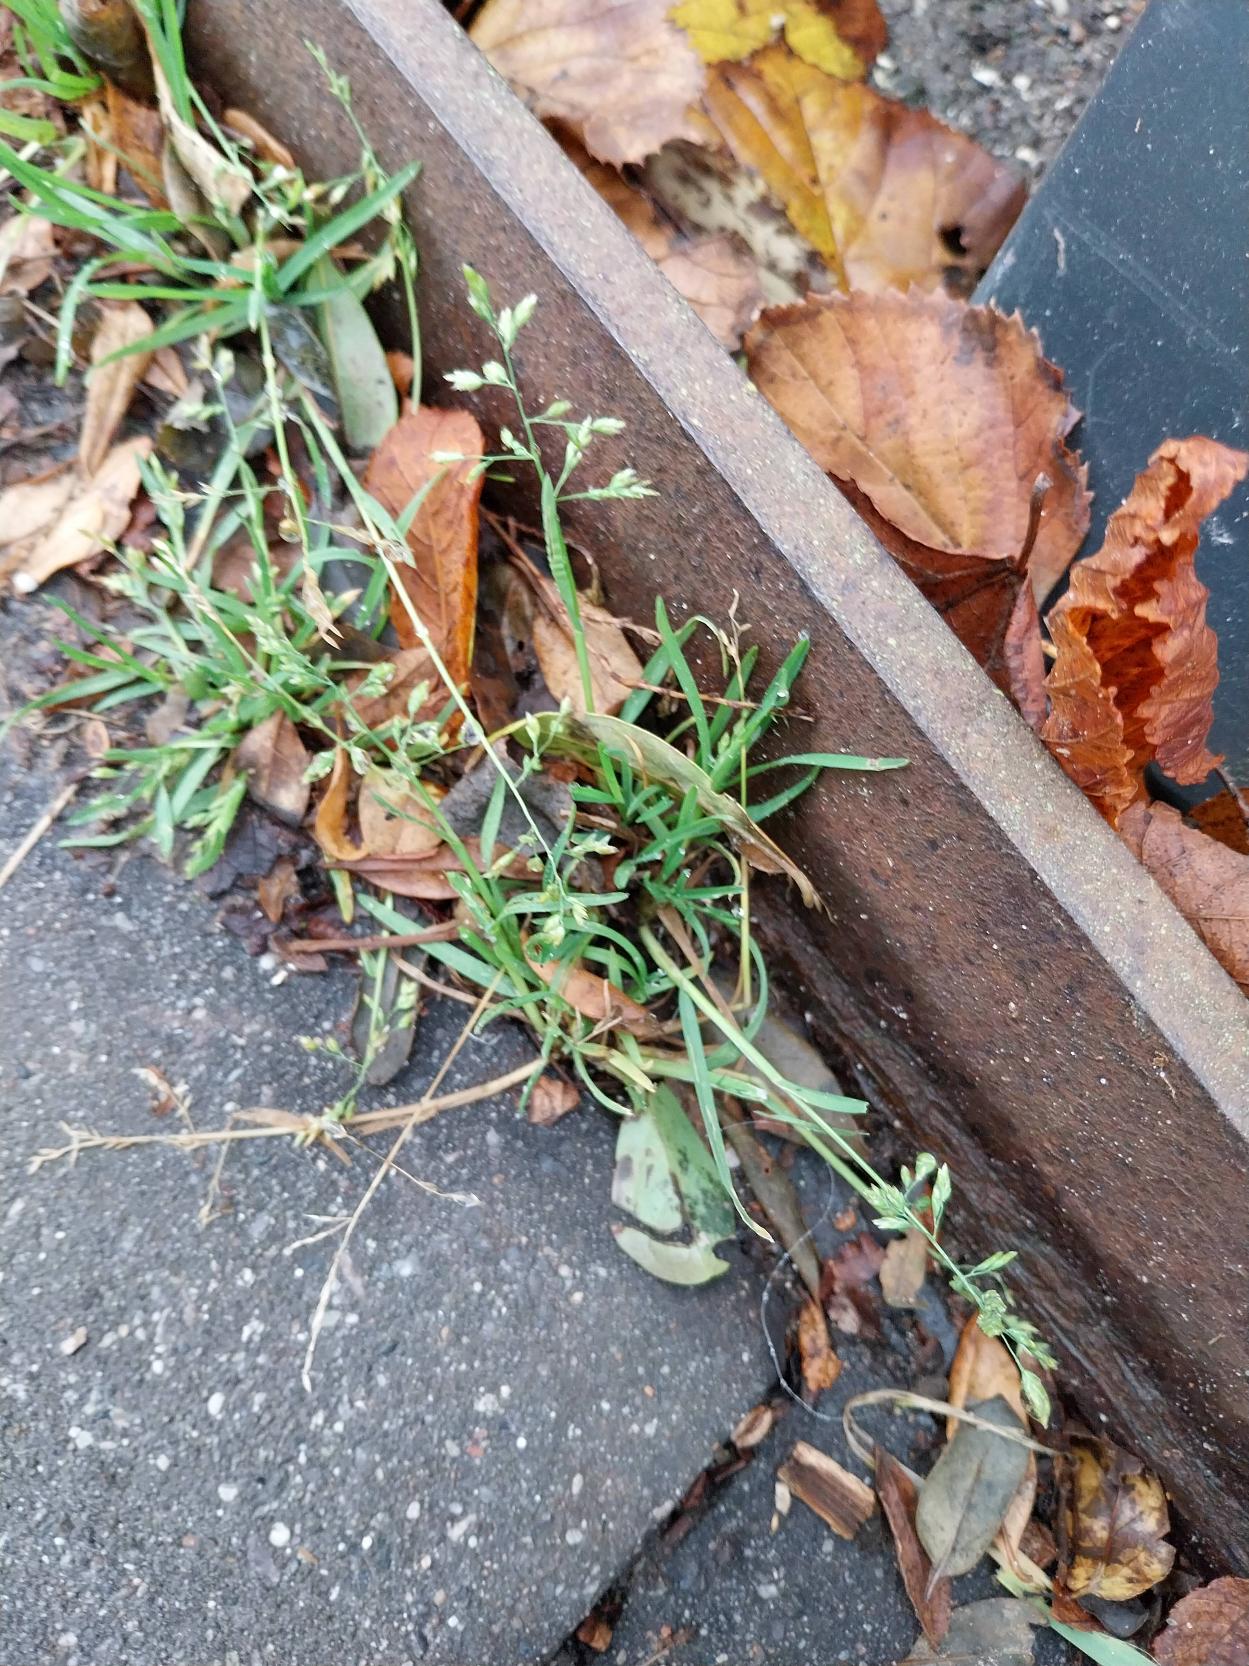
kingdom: Plantae
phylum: Tracheophyta
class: Liliopsida
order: Poales
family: Poaceae
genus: Poa
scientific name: Poa annua
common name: Enårig rapgræs
